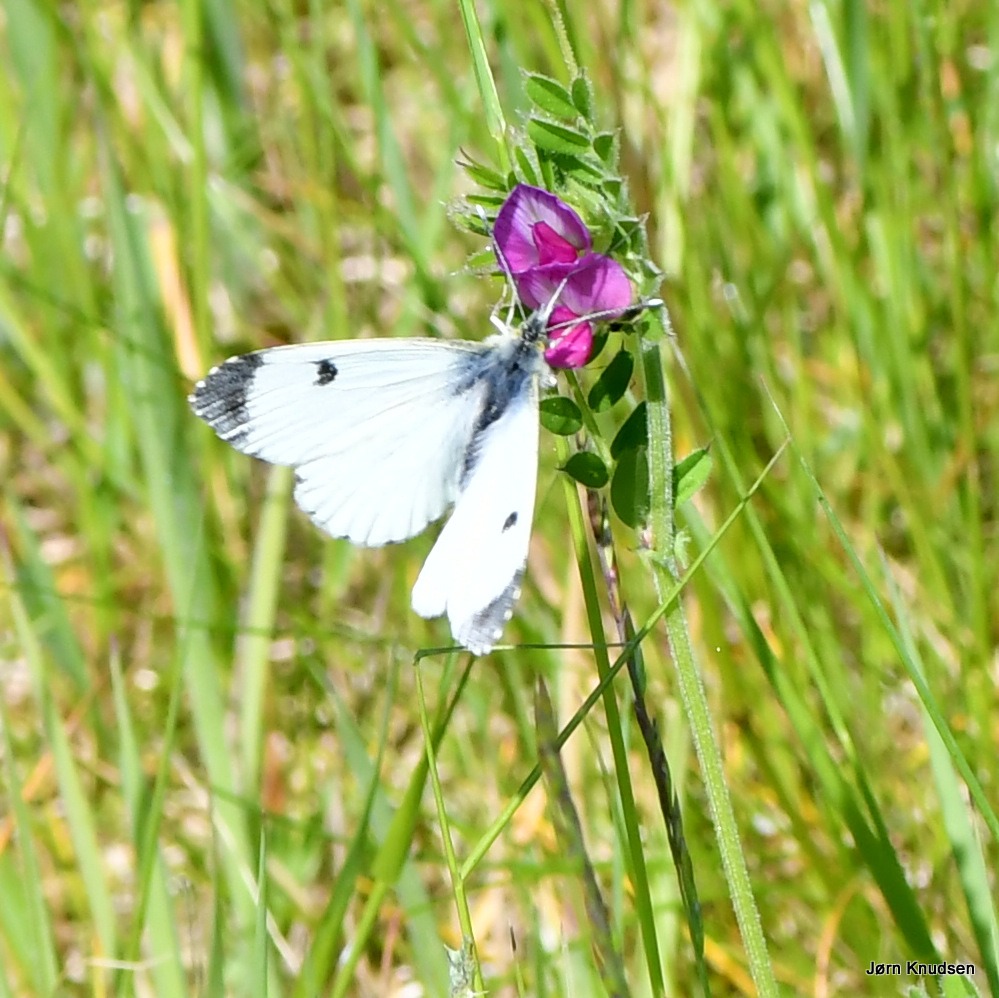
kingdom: Animalia
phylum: Arthropoda
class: Insecta
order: Lepidoptera
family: Pieridae
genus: Anthocharis
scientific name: Anthocharis cardamines
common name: Aurora
